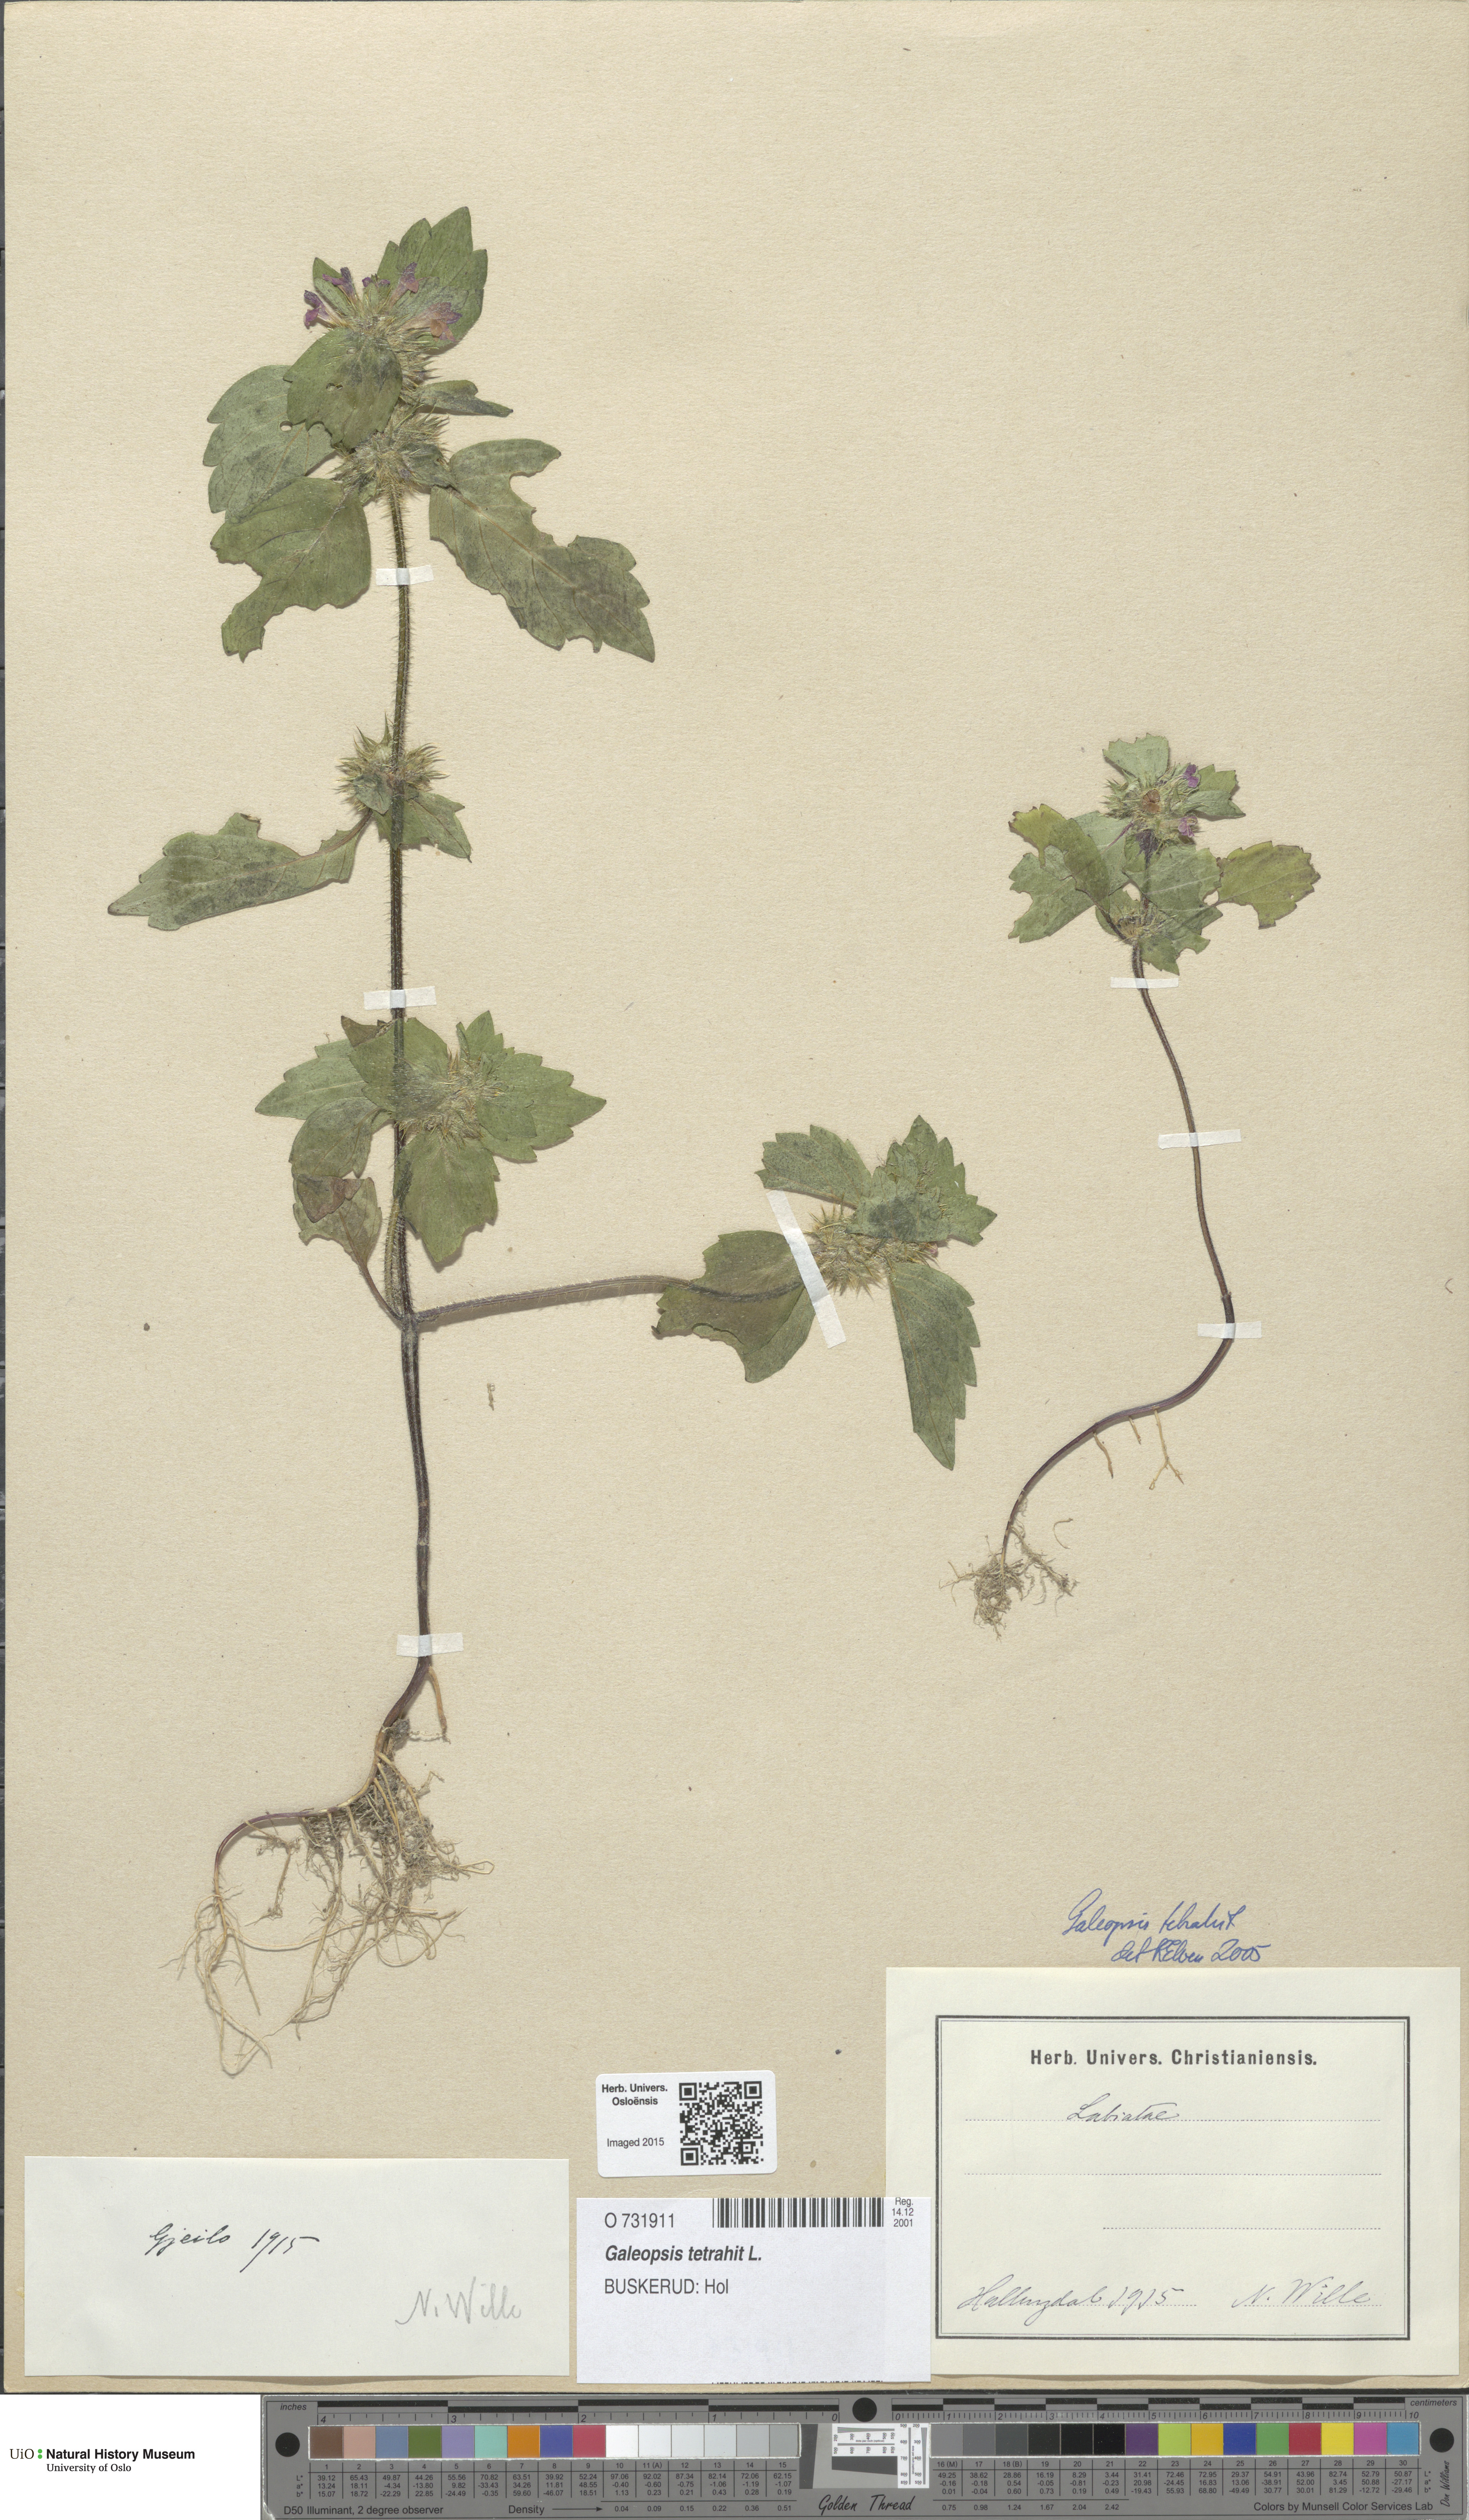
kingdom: Plantae
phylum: Tracheophyta
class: Magnoliopsida
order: Lamiales
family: Lamiaceae
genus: Galeopsis
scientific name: Galeopsis tetrahit
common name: Common hemp-nettle
